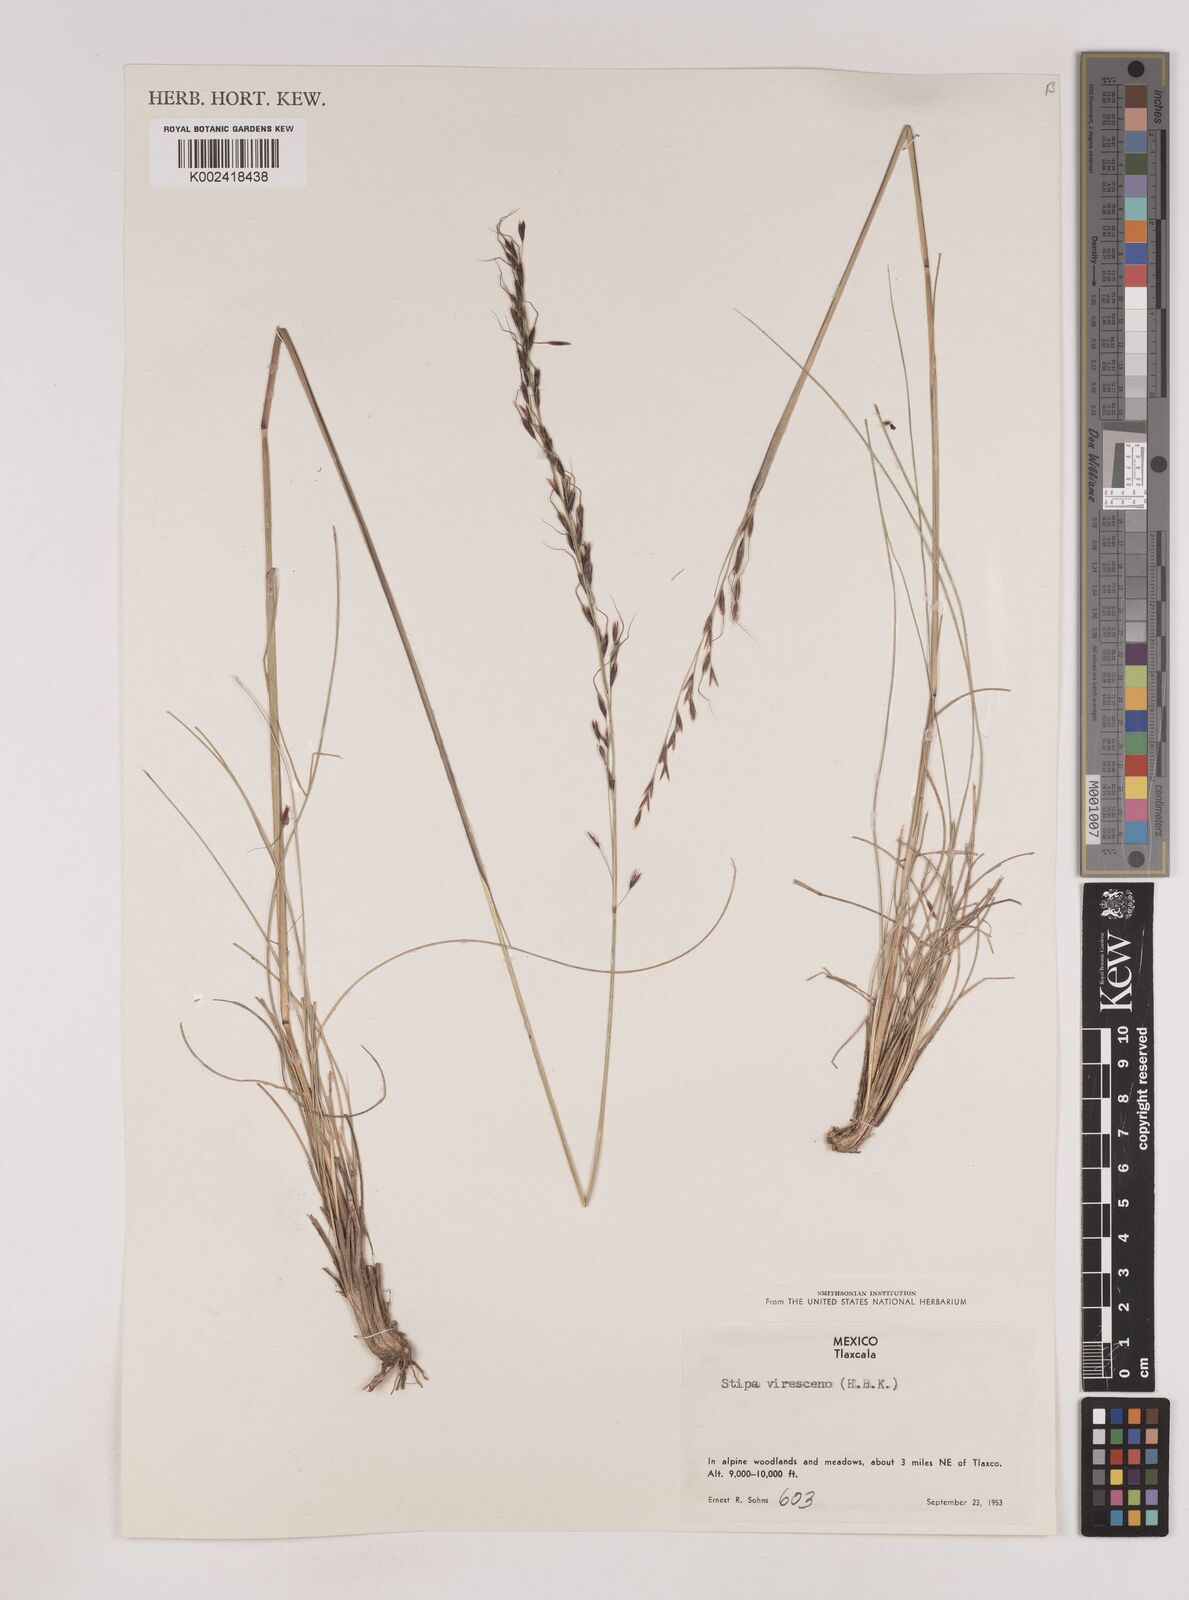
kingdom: Plantae
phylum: Tracheophyta
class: Liliopsida
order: Poales
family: Poaceae
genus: Piptochaetium
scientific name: Piptochaetium virescens
